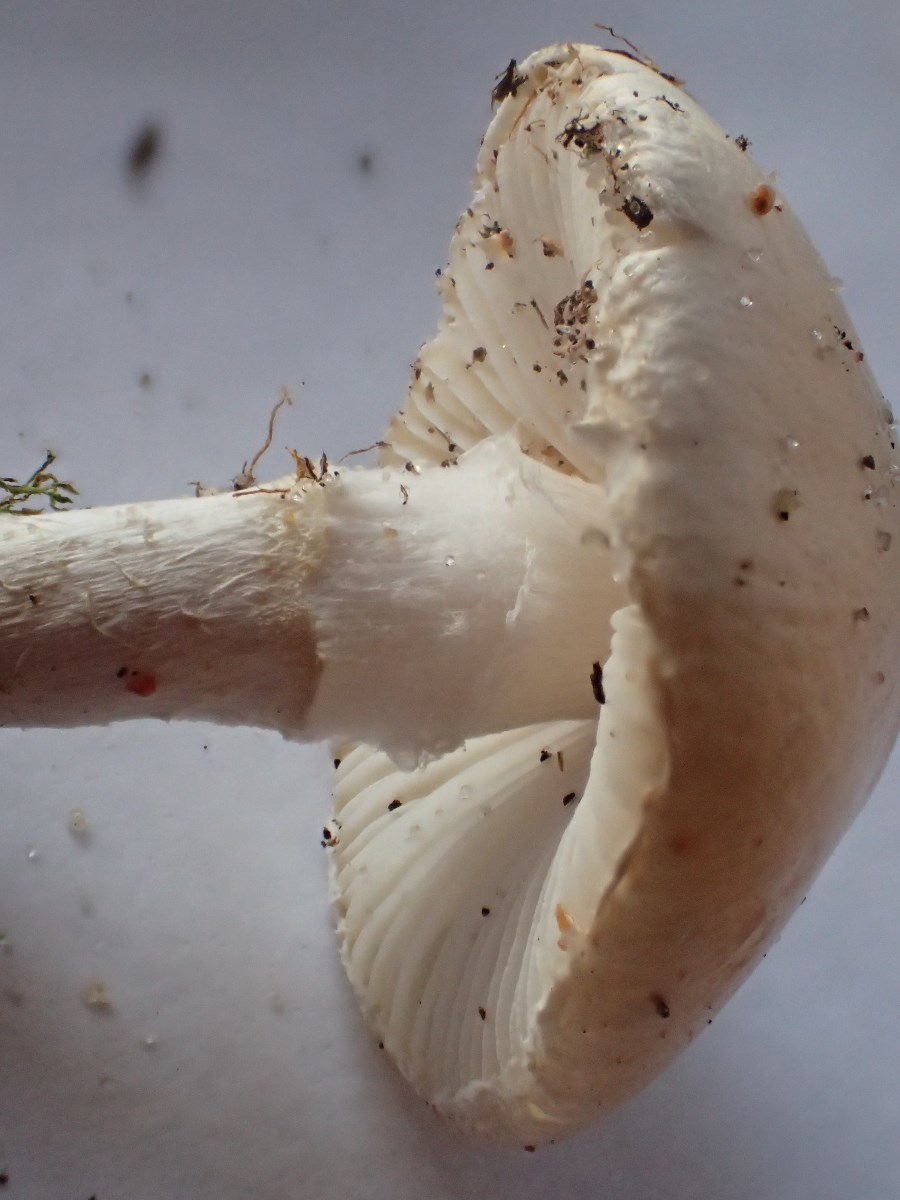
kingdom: Fungi
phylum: Basidiomycota
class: Agaricomycetes
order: Agaricales
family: Tricholomataceae
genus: Cystoderma
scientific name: Cystoderma carcharias
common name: rødgrå grynhat
